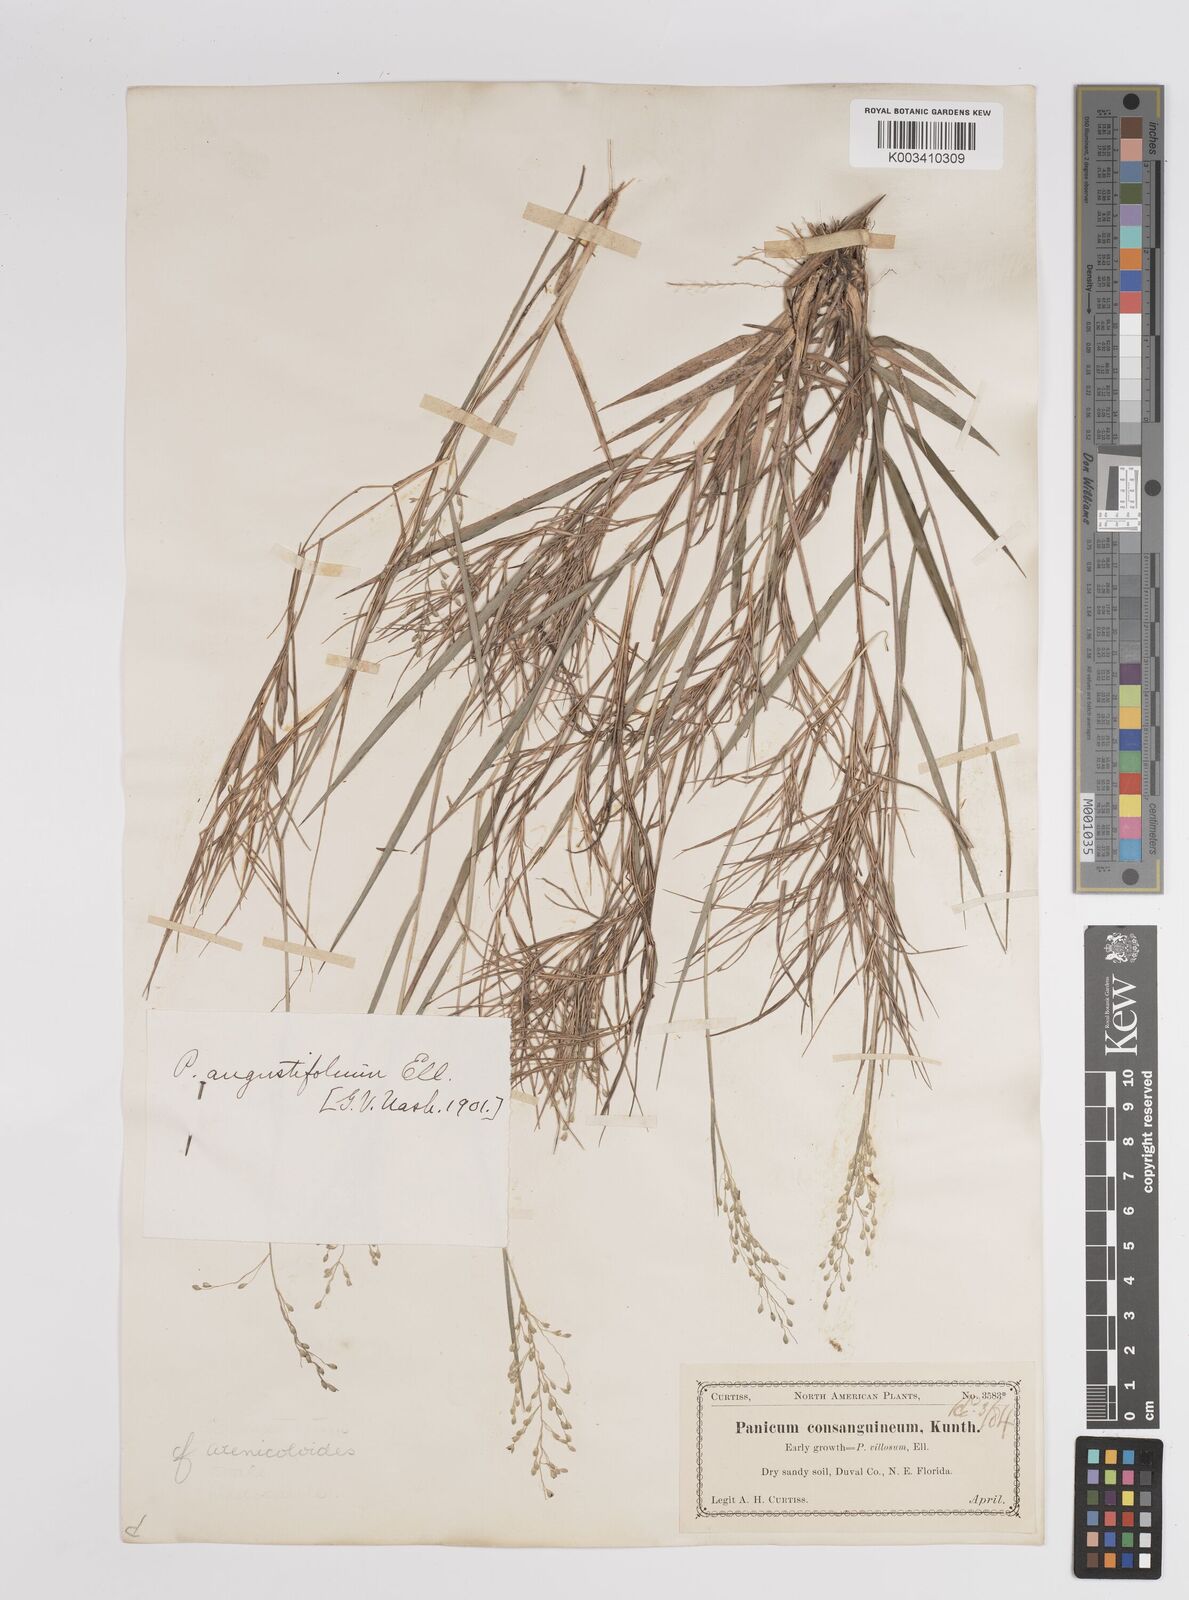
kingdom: Plantae
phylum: Tracheophyta
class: Liliopsida
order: Poales
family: Poaceae
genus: Dichanthelium
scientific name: Dichanthelium aciculare
